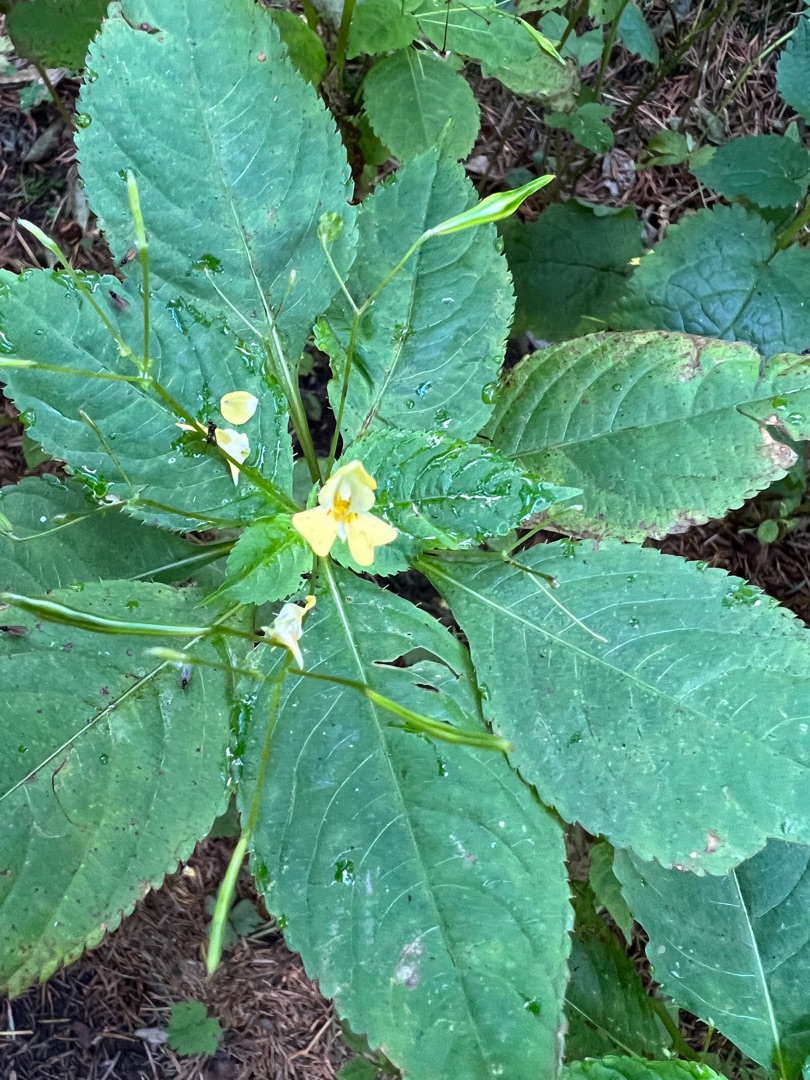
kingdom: Plantae
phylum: Tracheophyta
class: Magnoliopsida
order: Ericales
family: Balsaminaceae
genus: Impatiens
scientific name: Impatiens parviflora
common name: Småblomstret balsamin
